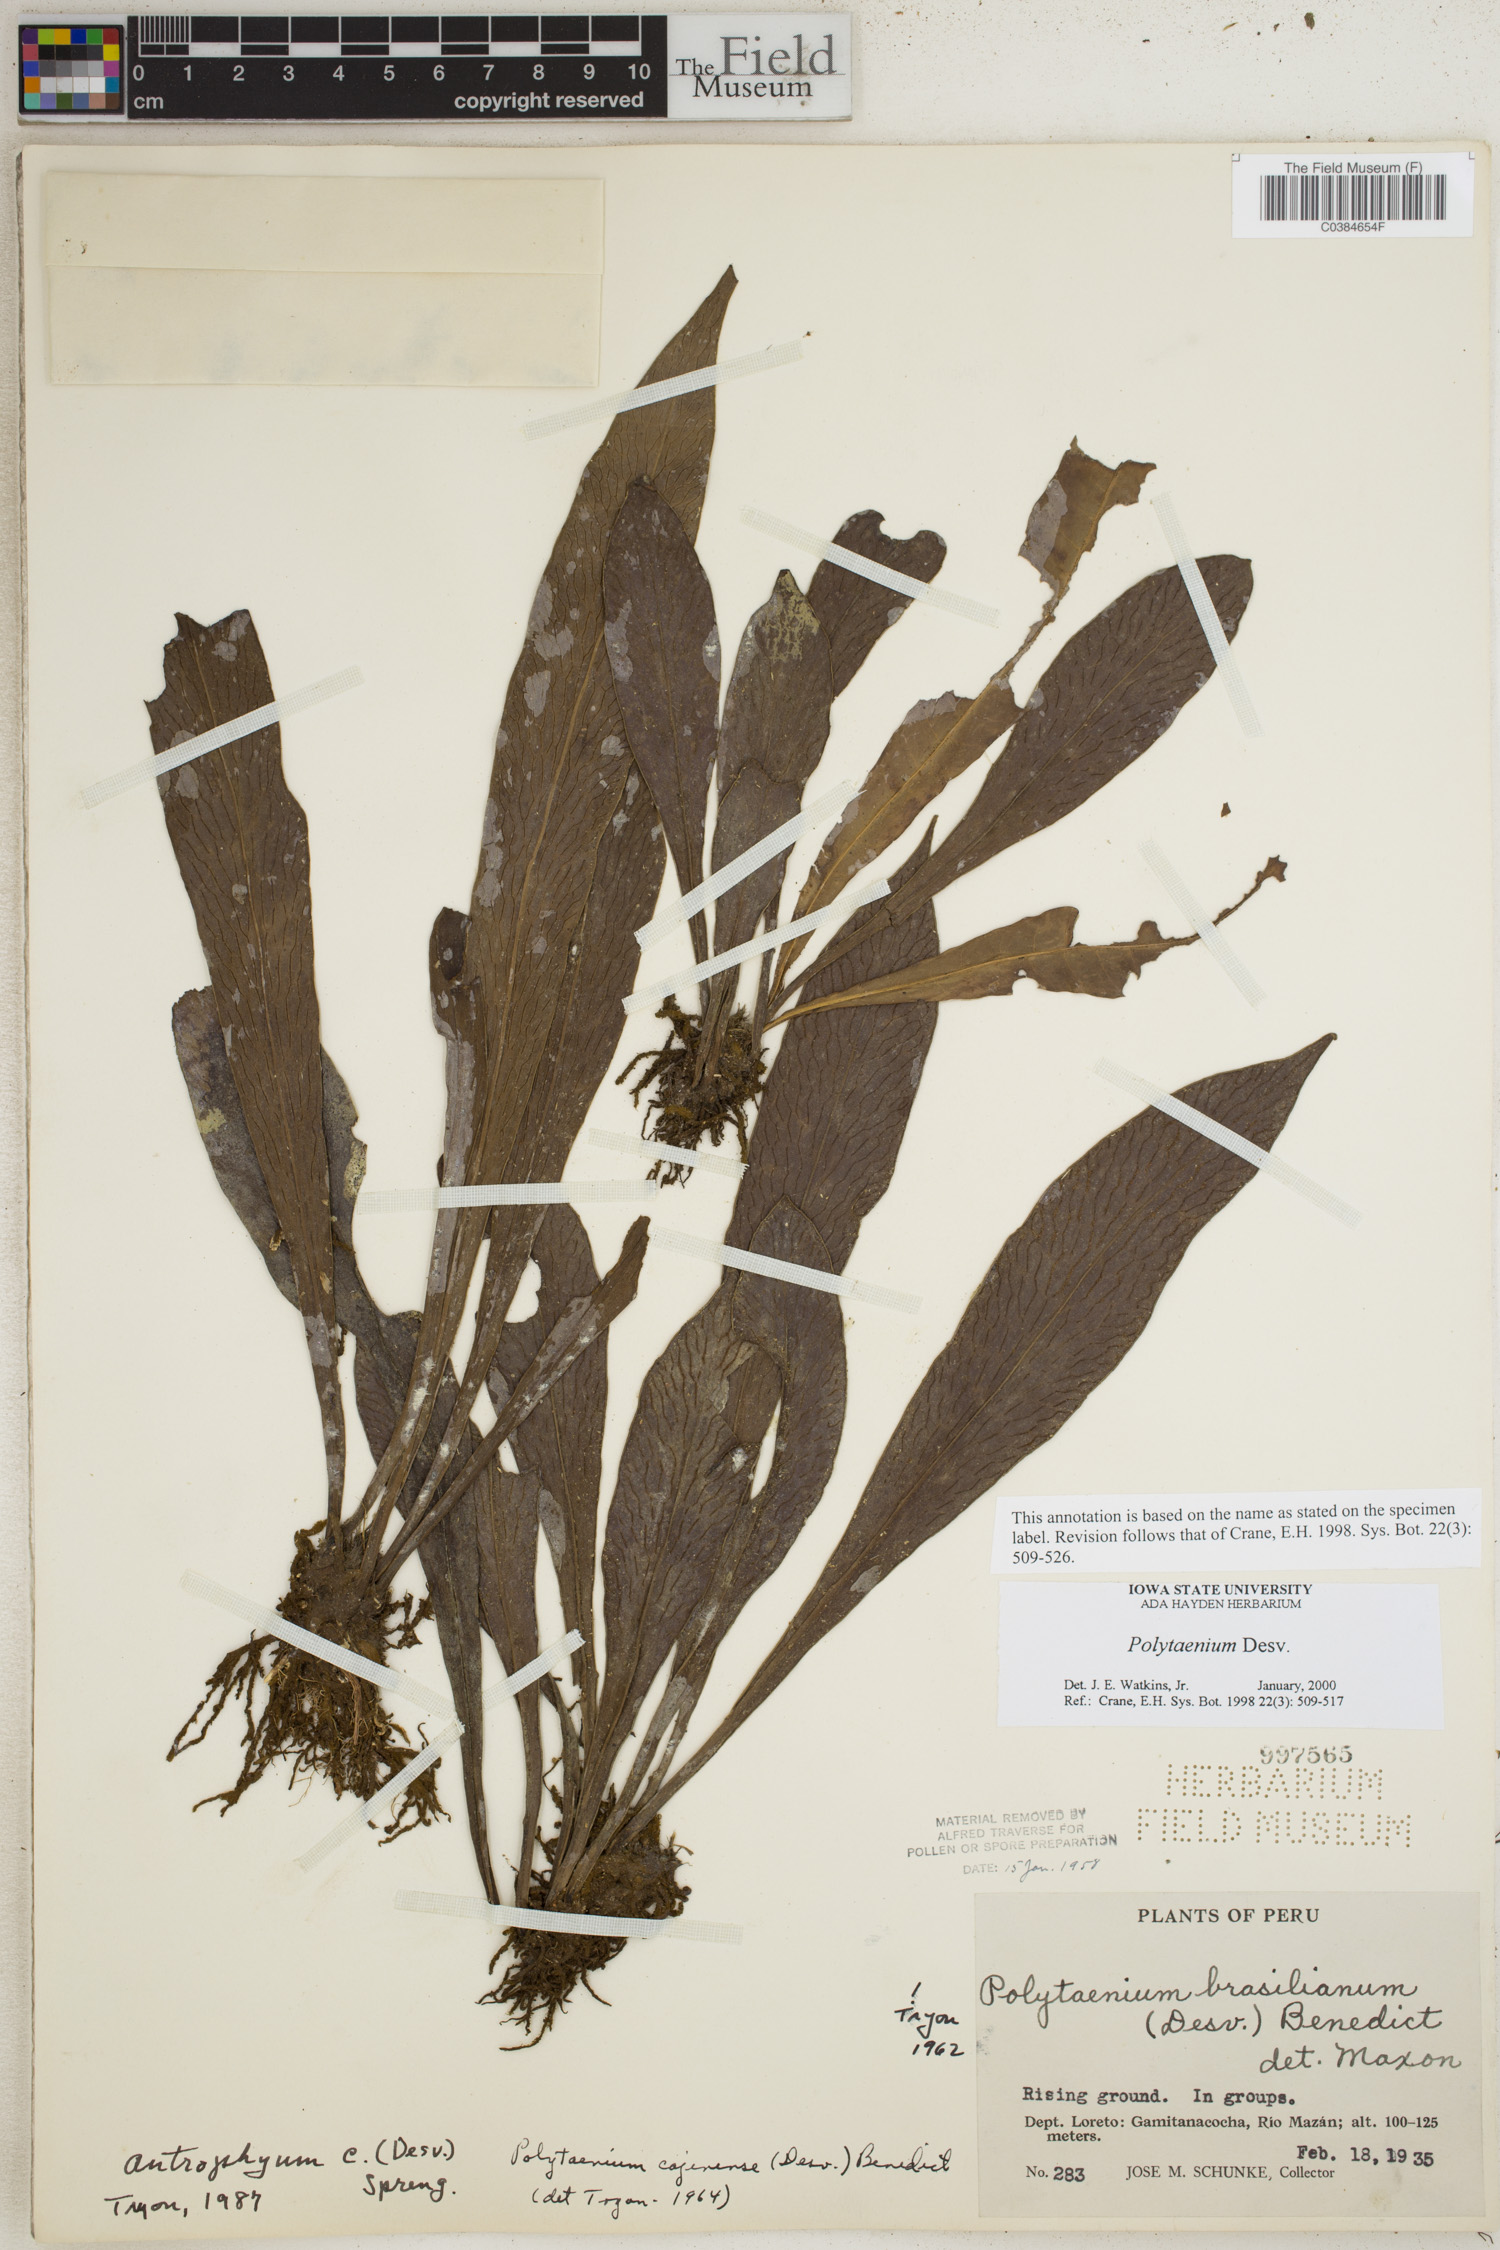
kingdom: Plantae
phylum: Tracheophyta
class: Polypodiopsida
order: Polypodiales
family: Pteridaceae
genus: Polytaenium
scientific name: Polytaenium
